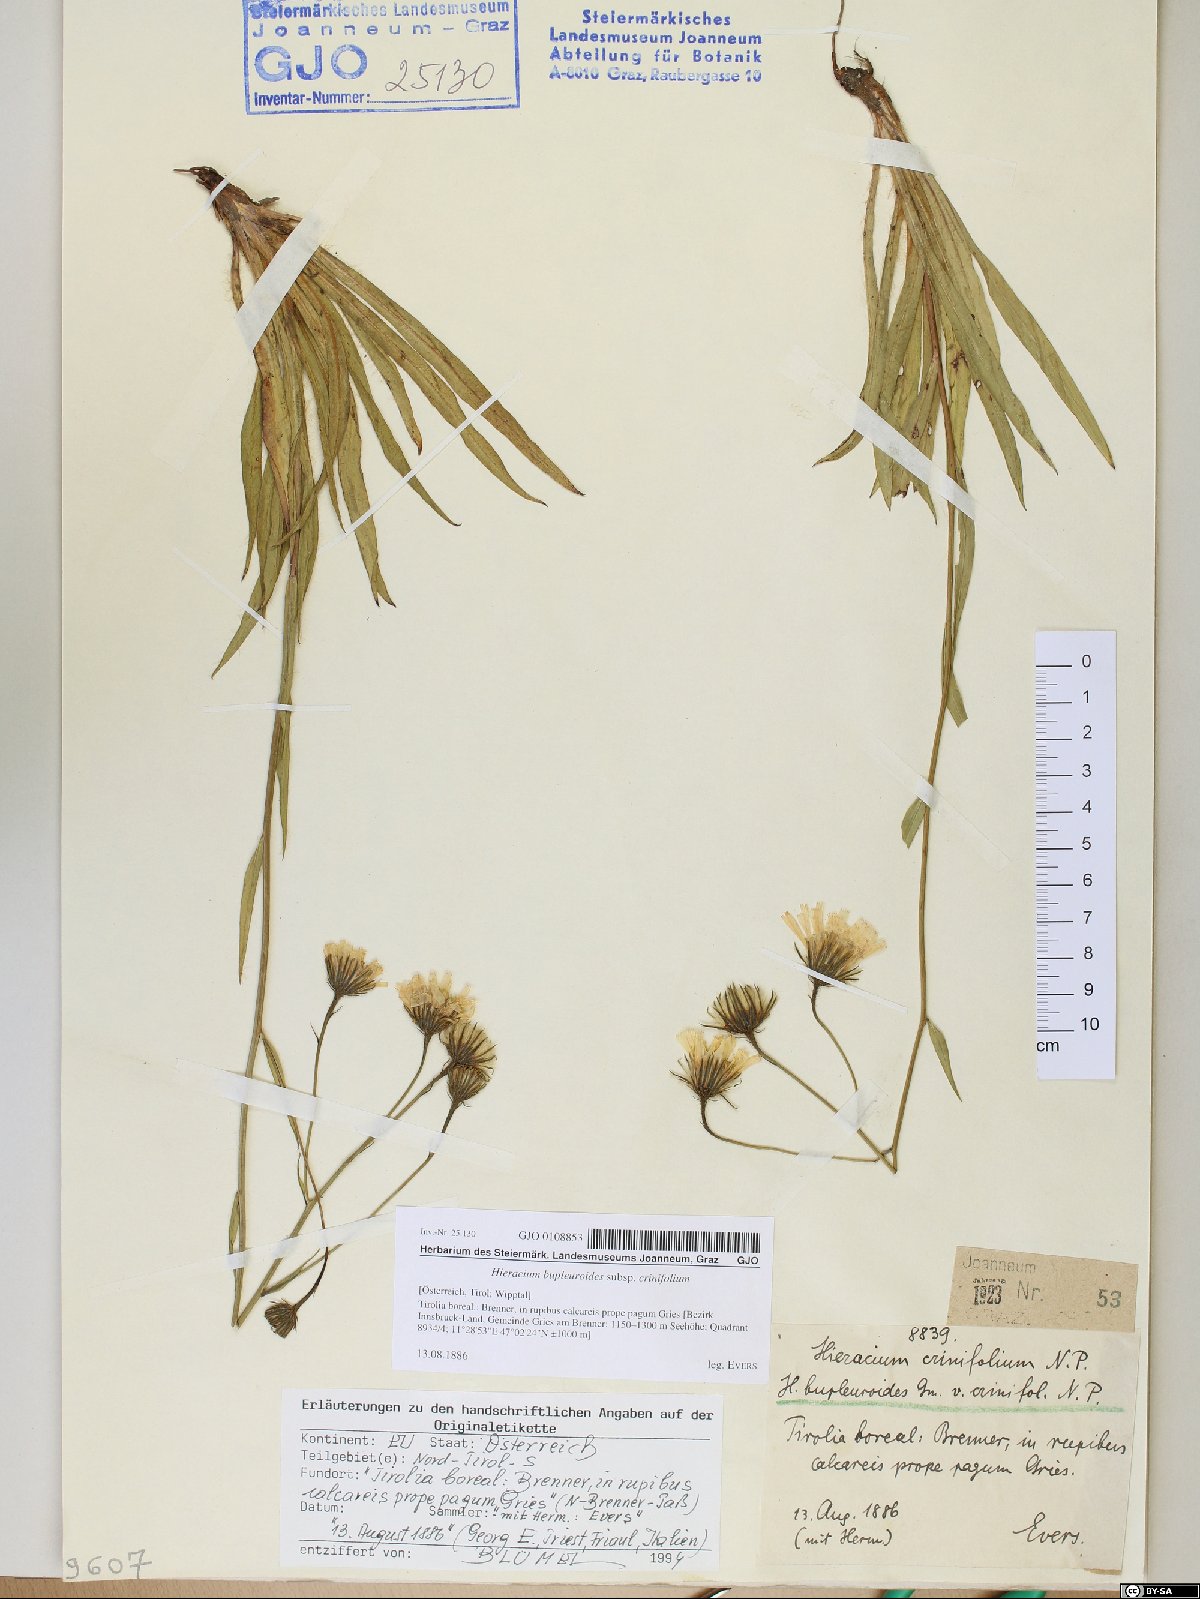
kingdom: Plantae
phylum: Tracheophyta
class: Magnoliopsida
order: Asterales
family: Asteraceae
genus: Hieracium
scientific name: Hieracium crinifolium
